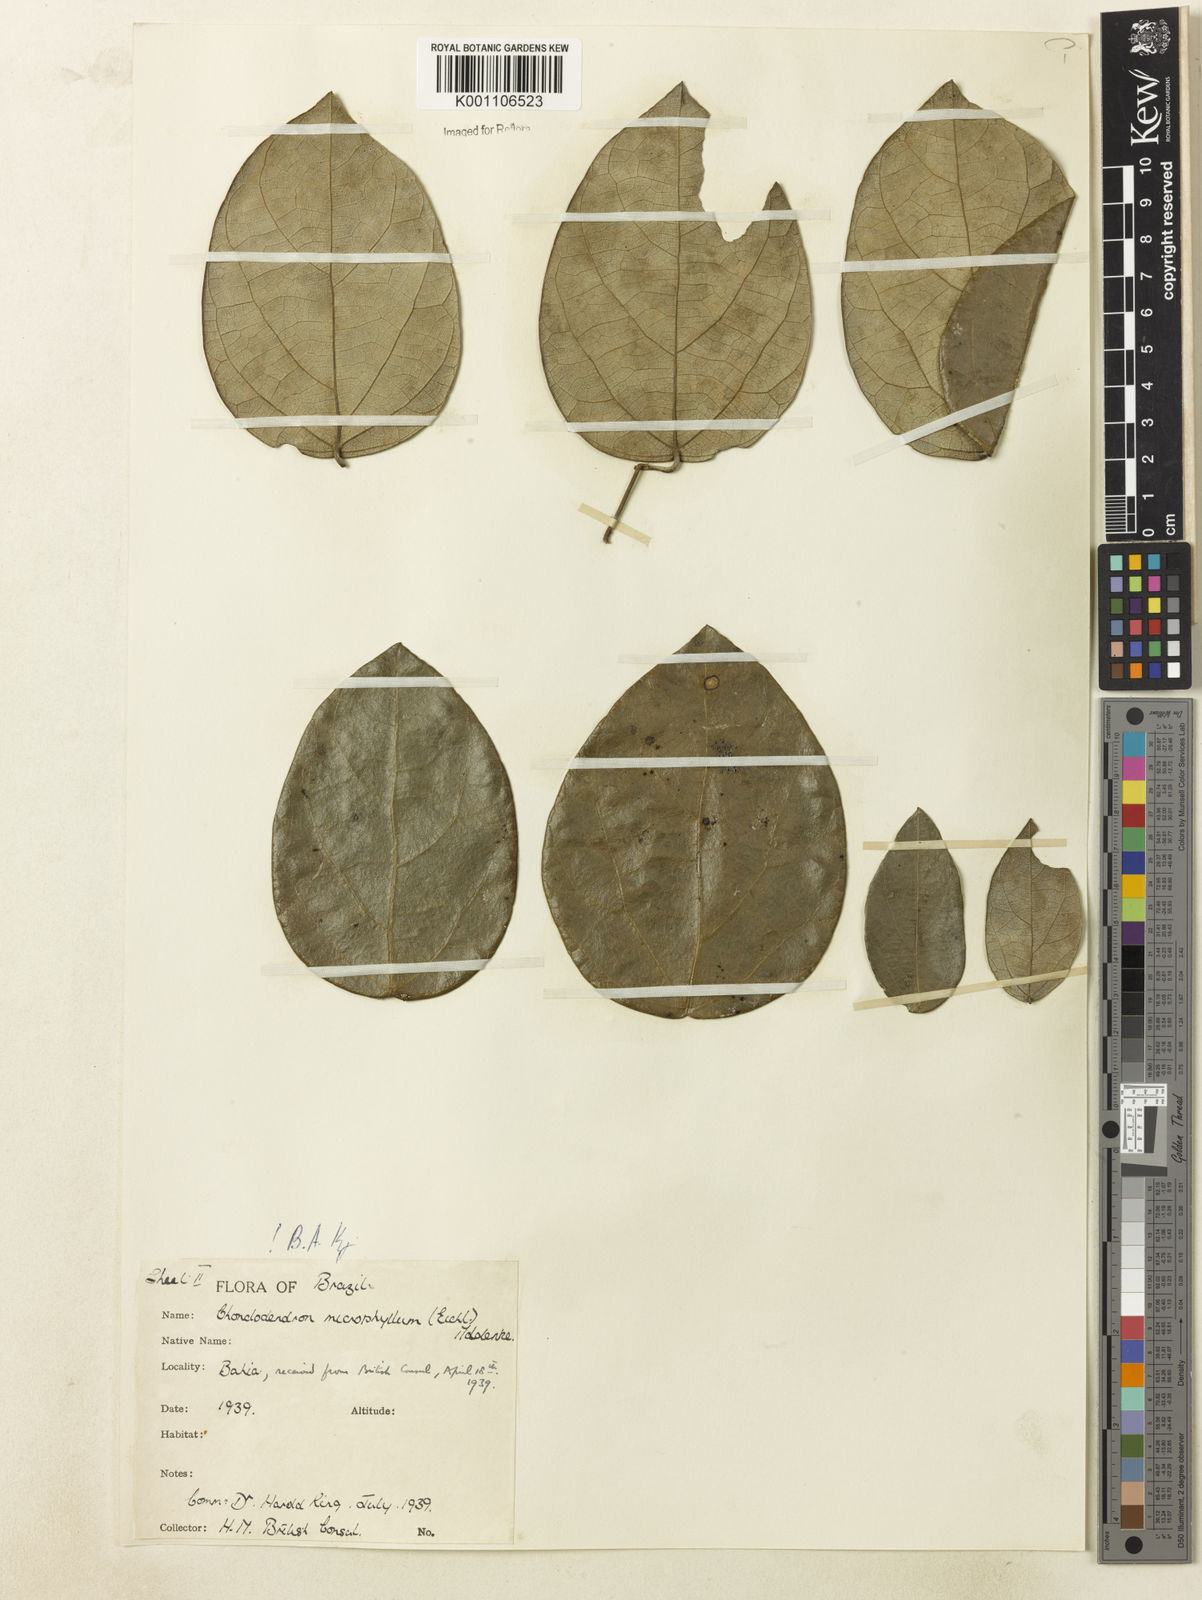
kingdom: Plantae
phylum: Tracheophyta
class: Magnoliopsida
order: Ranunculales
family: Menispermaceae
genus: Chondrodendron
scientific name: Chondrodendron microphyllum
